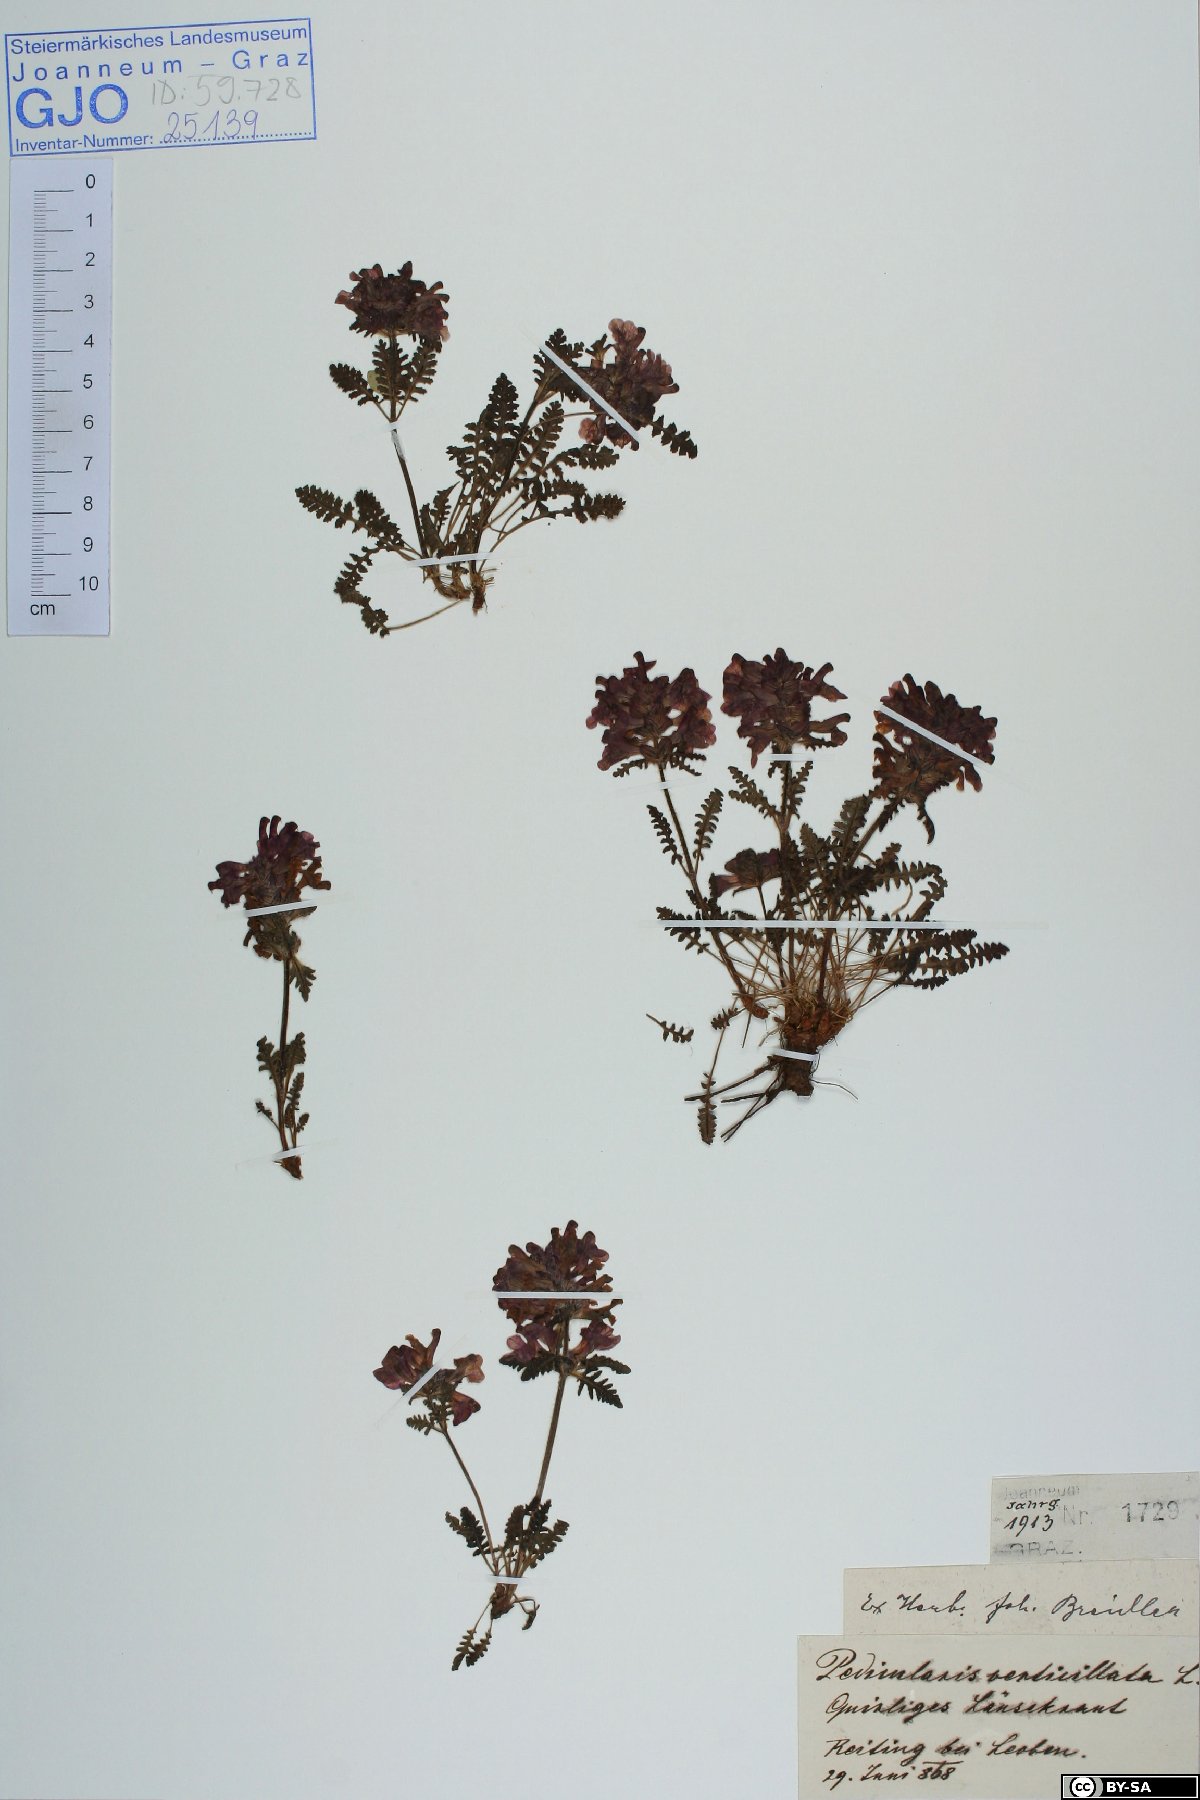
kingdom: Plantae
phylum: Tracheophyta
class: Magnoliopsida
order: Lamiales
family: Orobanchaceae
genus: Pedicularis
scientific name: Pedicularis verticillata
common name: Whorled lousewort
